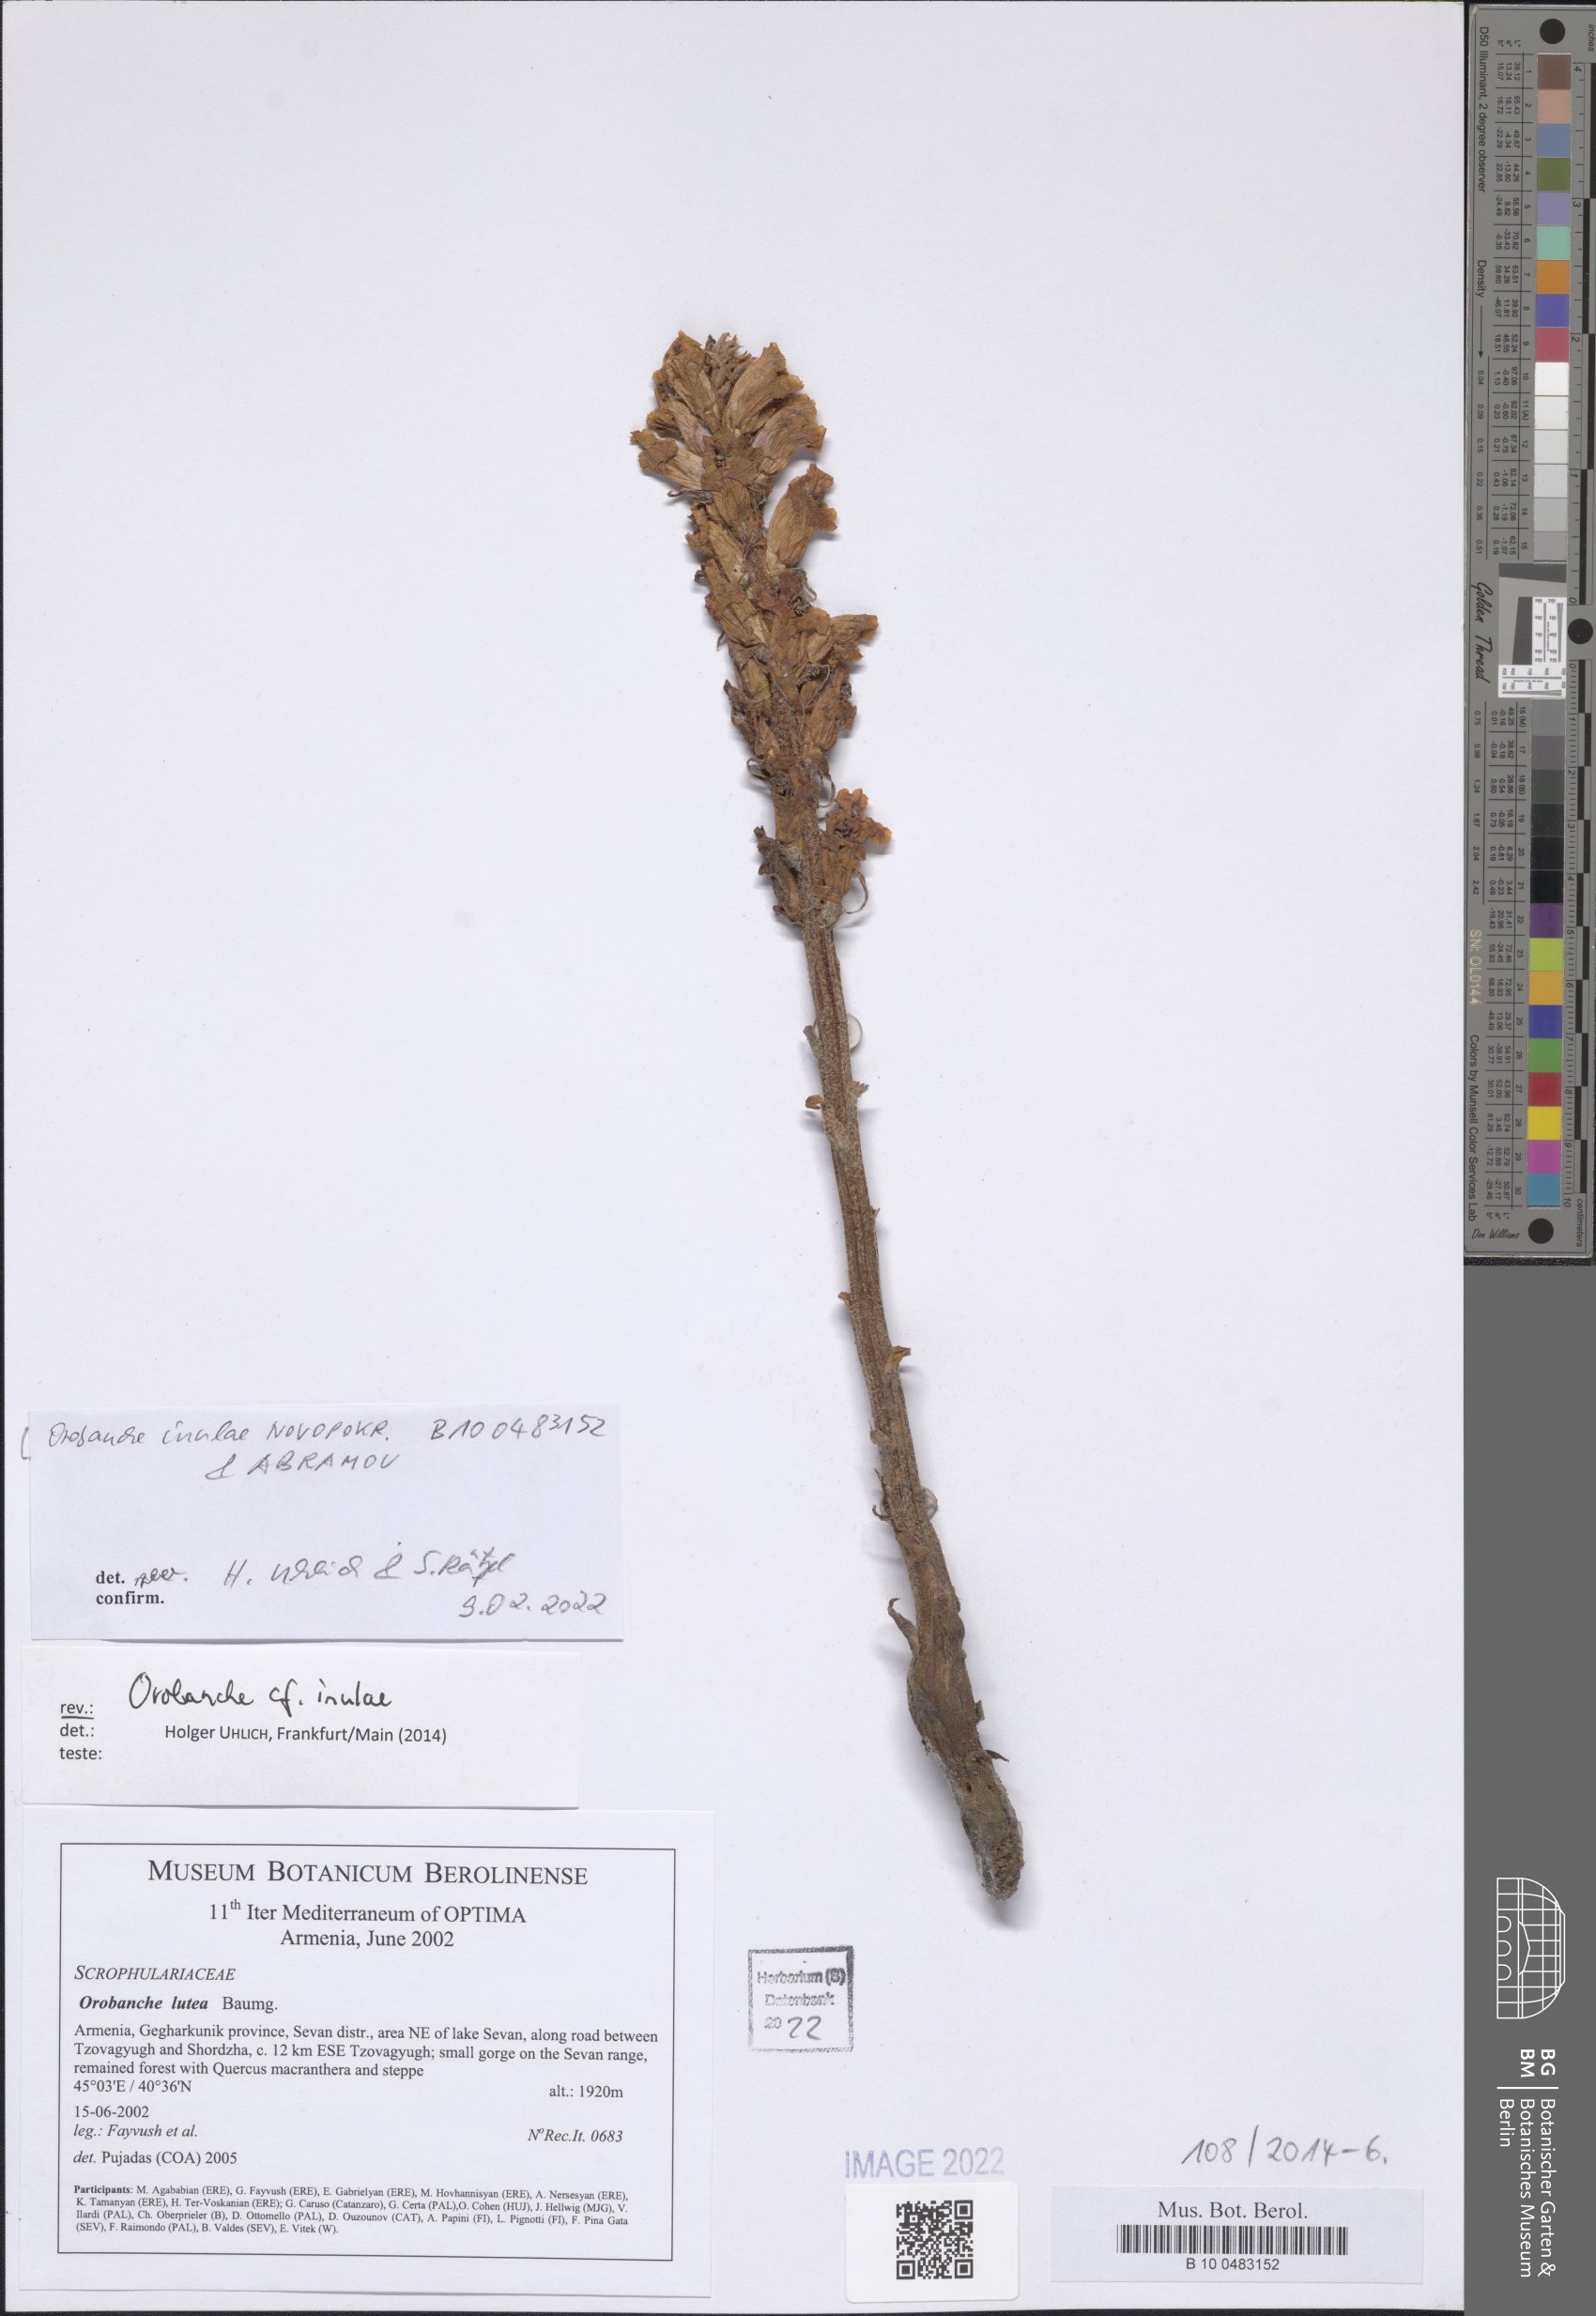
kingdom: Plantae
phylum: Tracheophyta
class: Magnoliopsida
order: Lamiales
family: Orobanchaceae
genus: Orobanche
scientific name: Orobanche inulae
